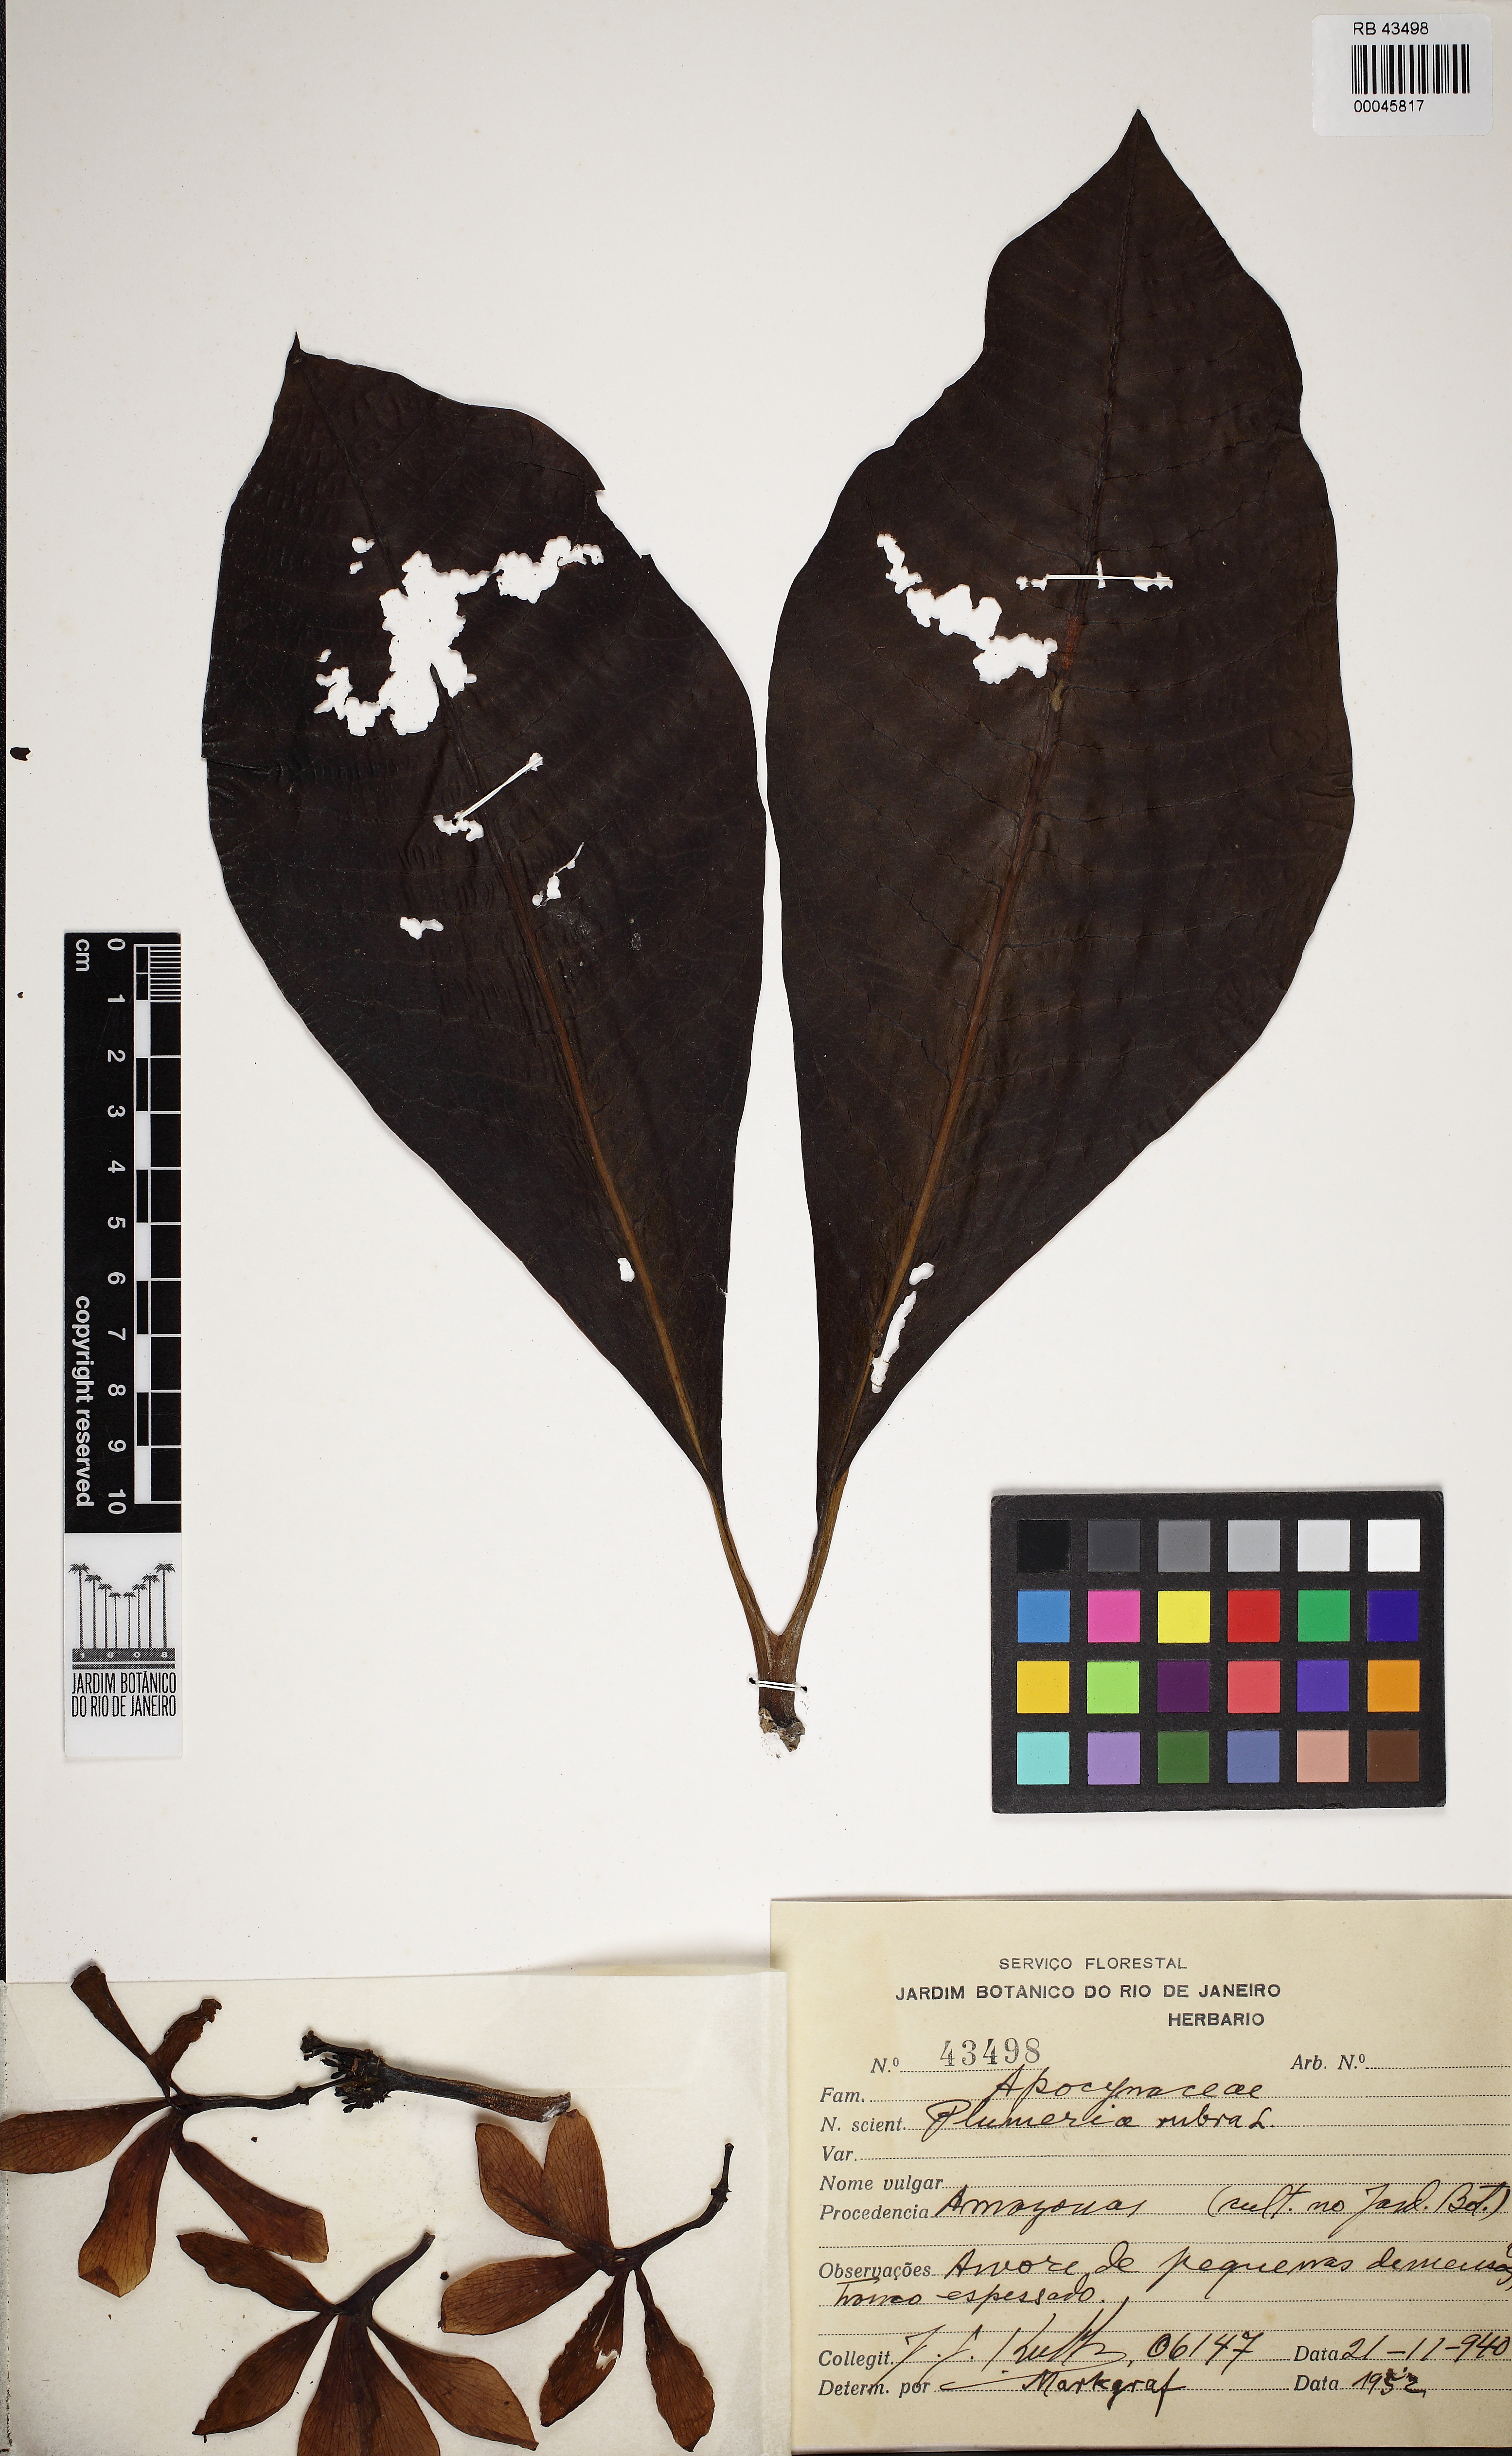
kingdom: Plantae
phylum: Tracheophyta
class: Magnoliopsida
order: Gentianales
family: Apocynaceae
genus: Plumeria
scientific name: Plumeria rubra
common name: Pagoda-tree
